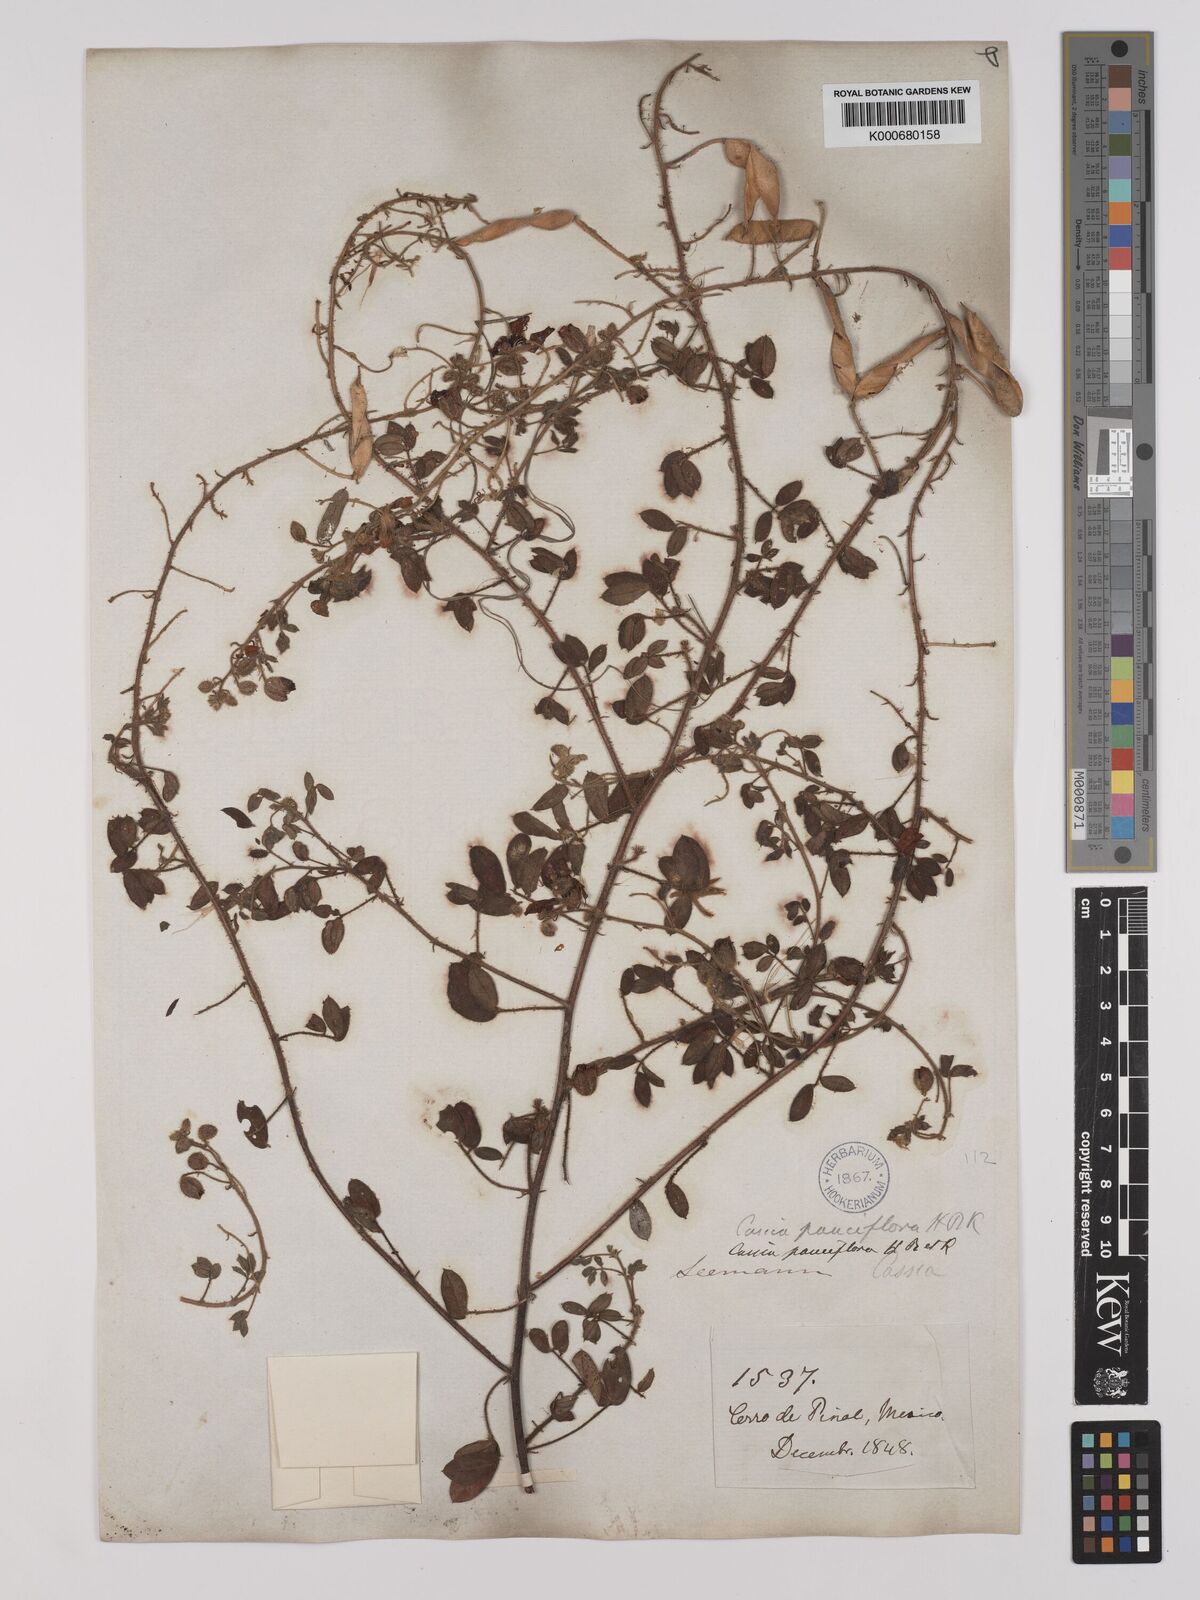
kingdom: Plantae
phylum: Tracheophyta
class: Magnoliopsida
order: Fabales
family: Fabaceae
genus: Chamaecrista
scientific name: Chamaecrista hispidula
